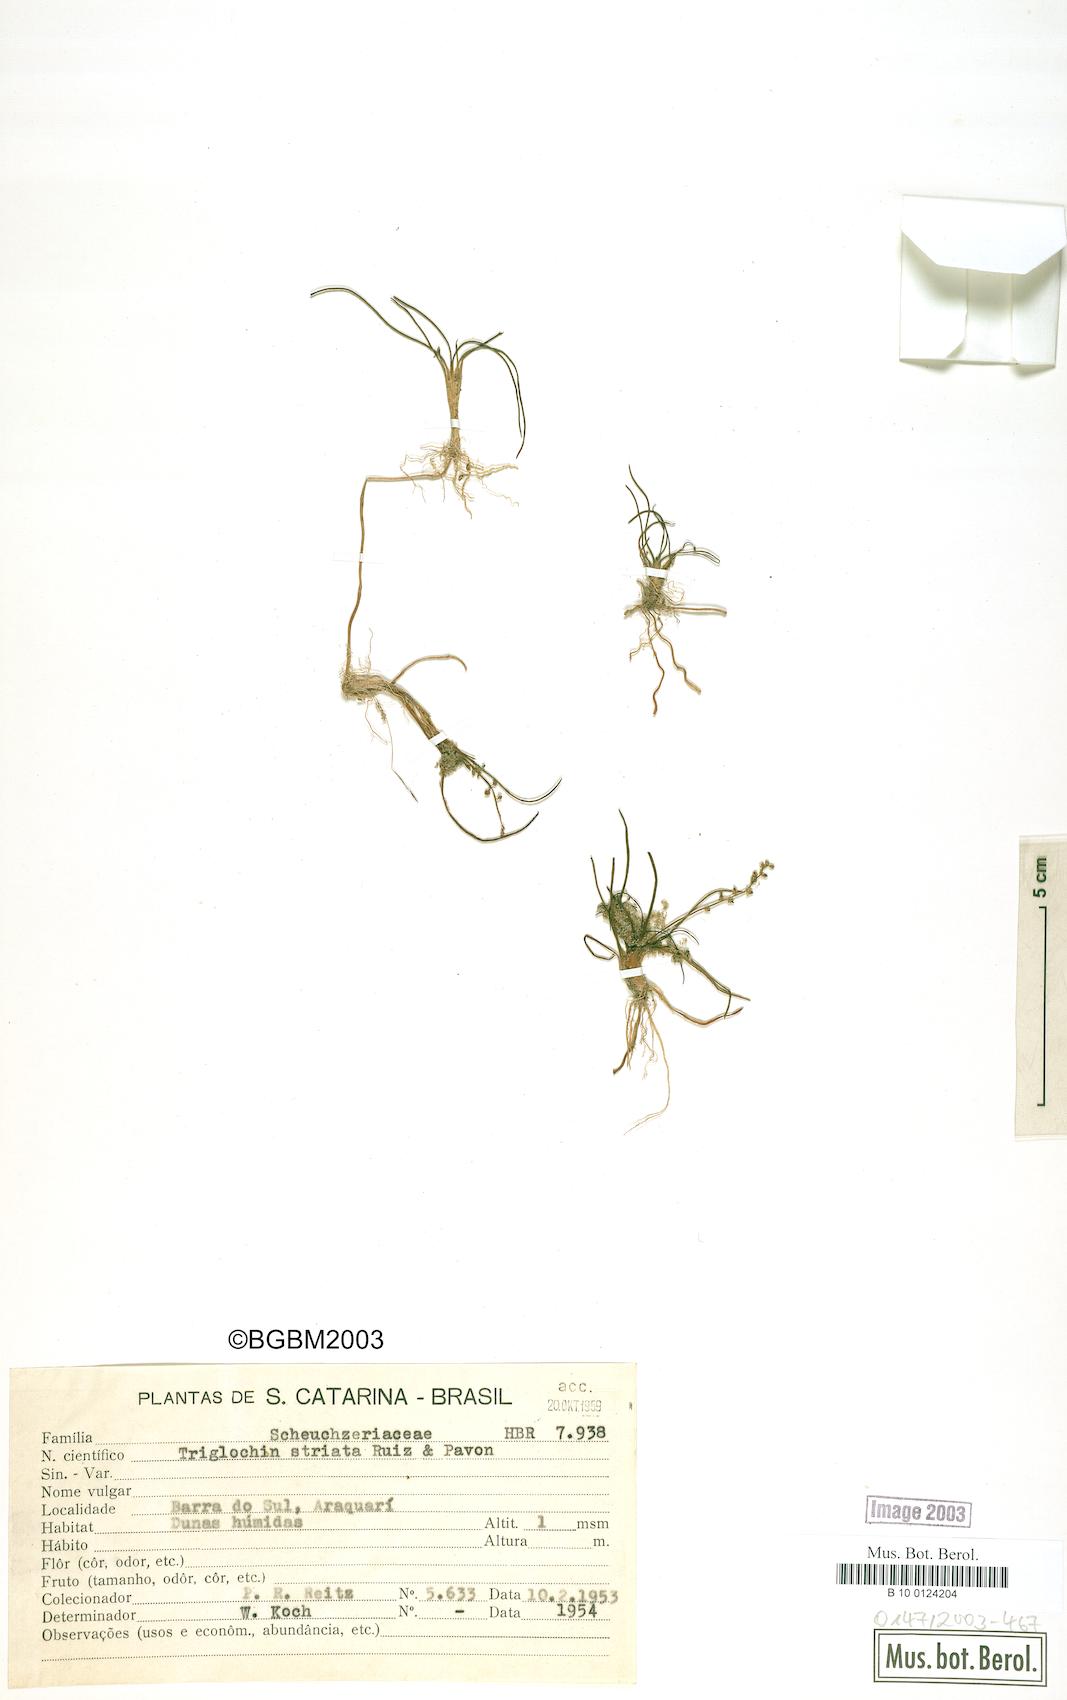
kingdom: Plantae
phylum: Tracheophyta
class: Liliopsida
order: Alismatales
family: Juncaginaceae
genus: Triglochin
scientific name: Triglochin striata
